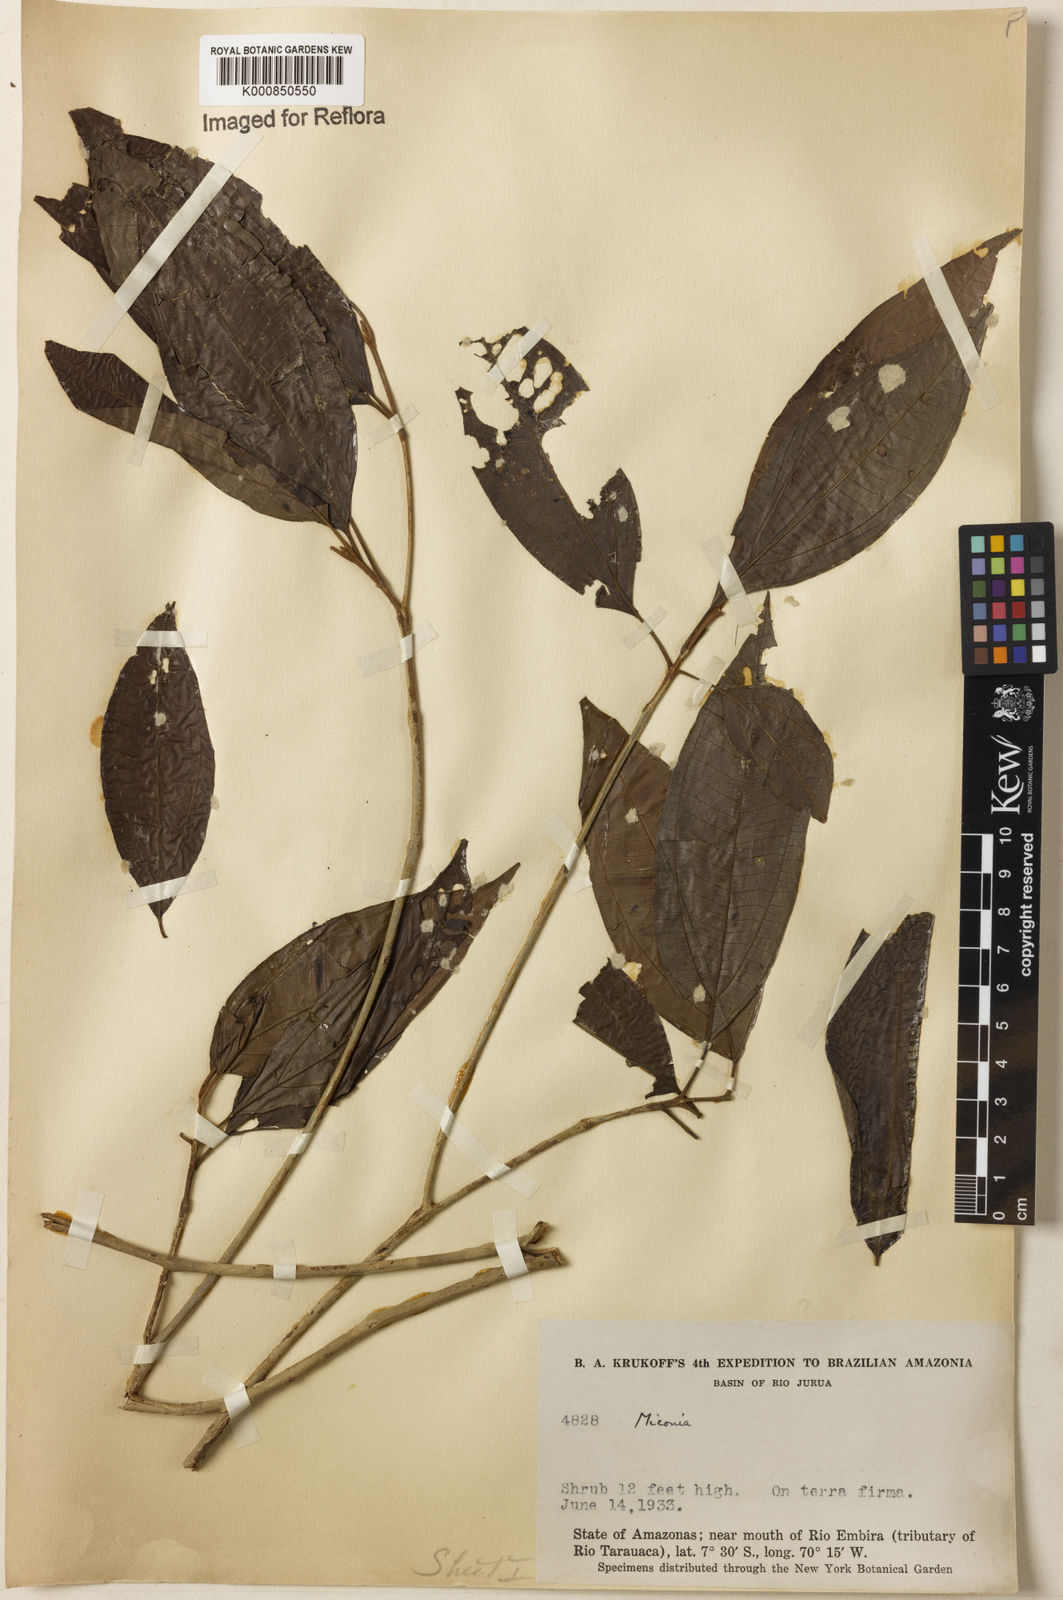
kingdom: Plantae
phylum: Tracheophyta
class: Magnoliopsida
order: Myrtales
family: Melastomataceae
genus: Miconia
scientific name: Miconia
